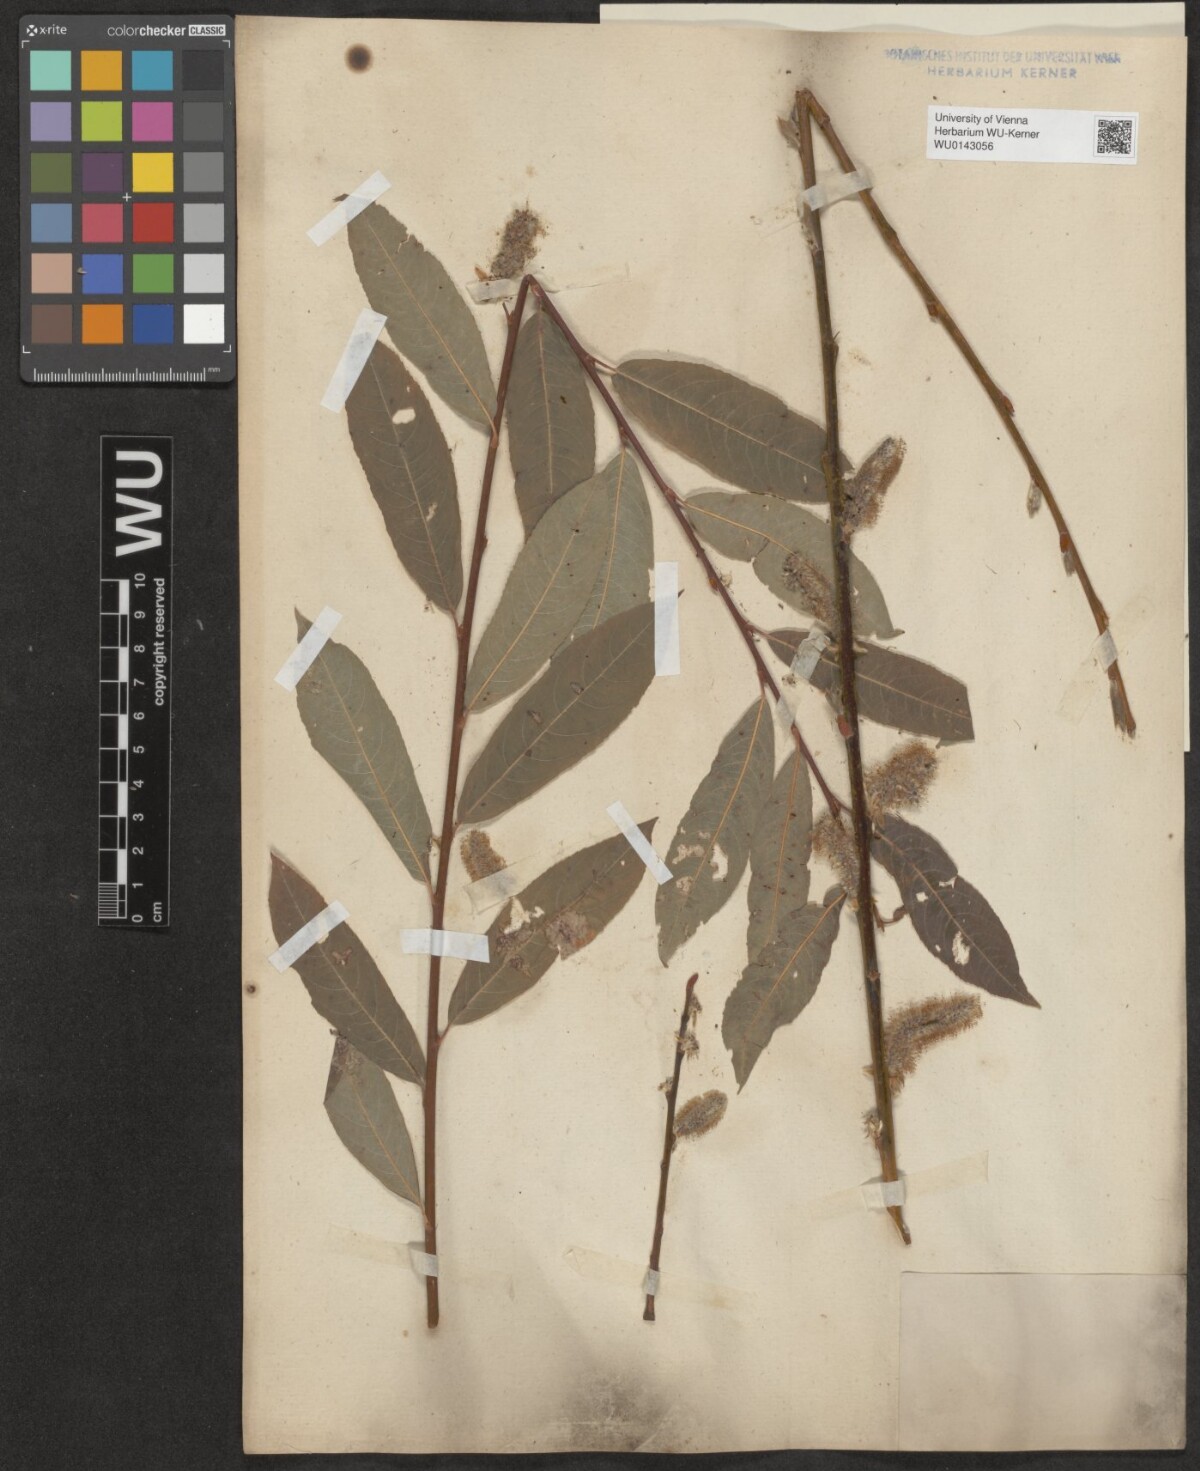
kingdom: Plantae
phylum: Tracheophyta
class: Magnoliopsida
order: Malpighiales
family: Salicaceae
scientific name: Salicaceae
